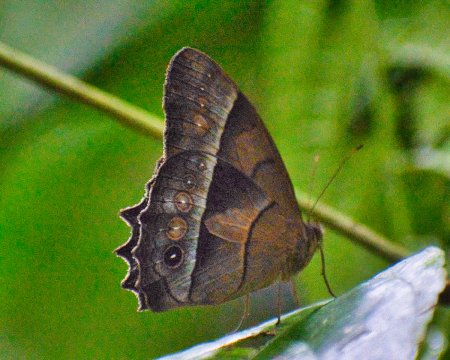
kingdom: Animalia
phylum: Arthropoda
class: Insecta
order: Lepidoptera
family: Nymphalidae
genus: Taygetis
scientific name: Taygetis andromeda
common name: Uzza Satyr
